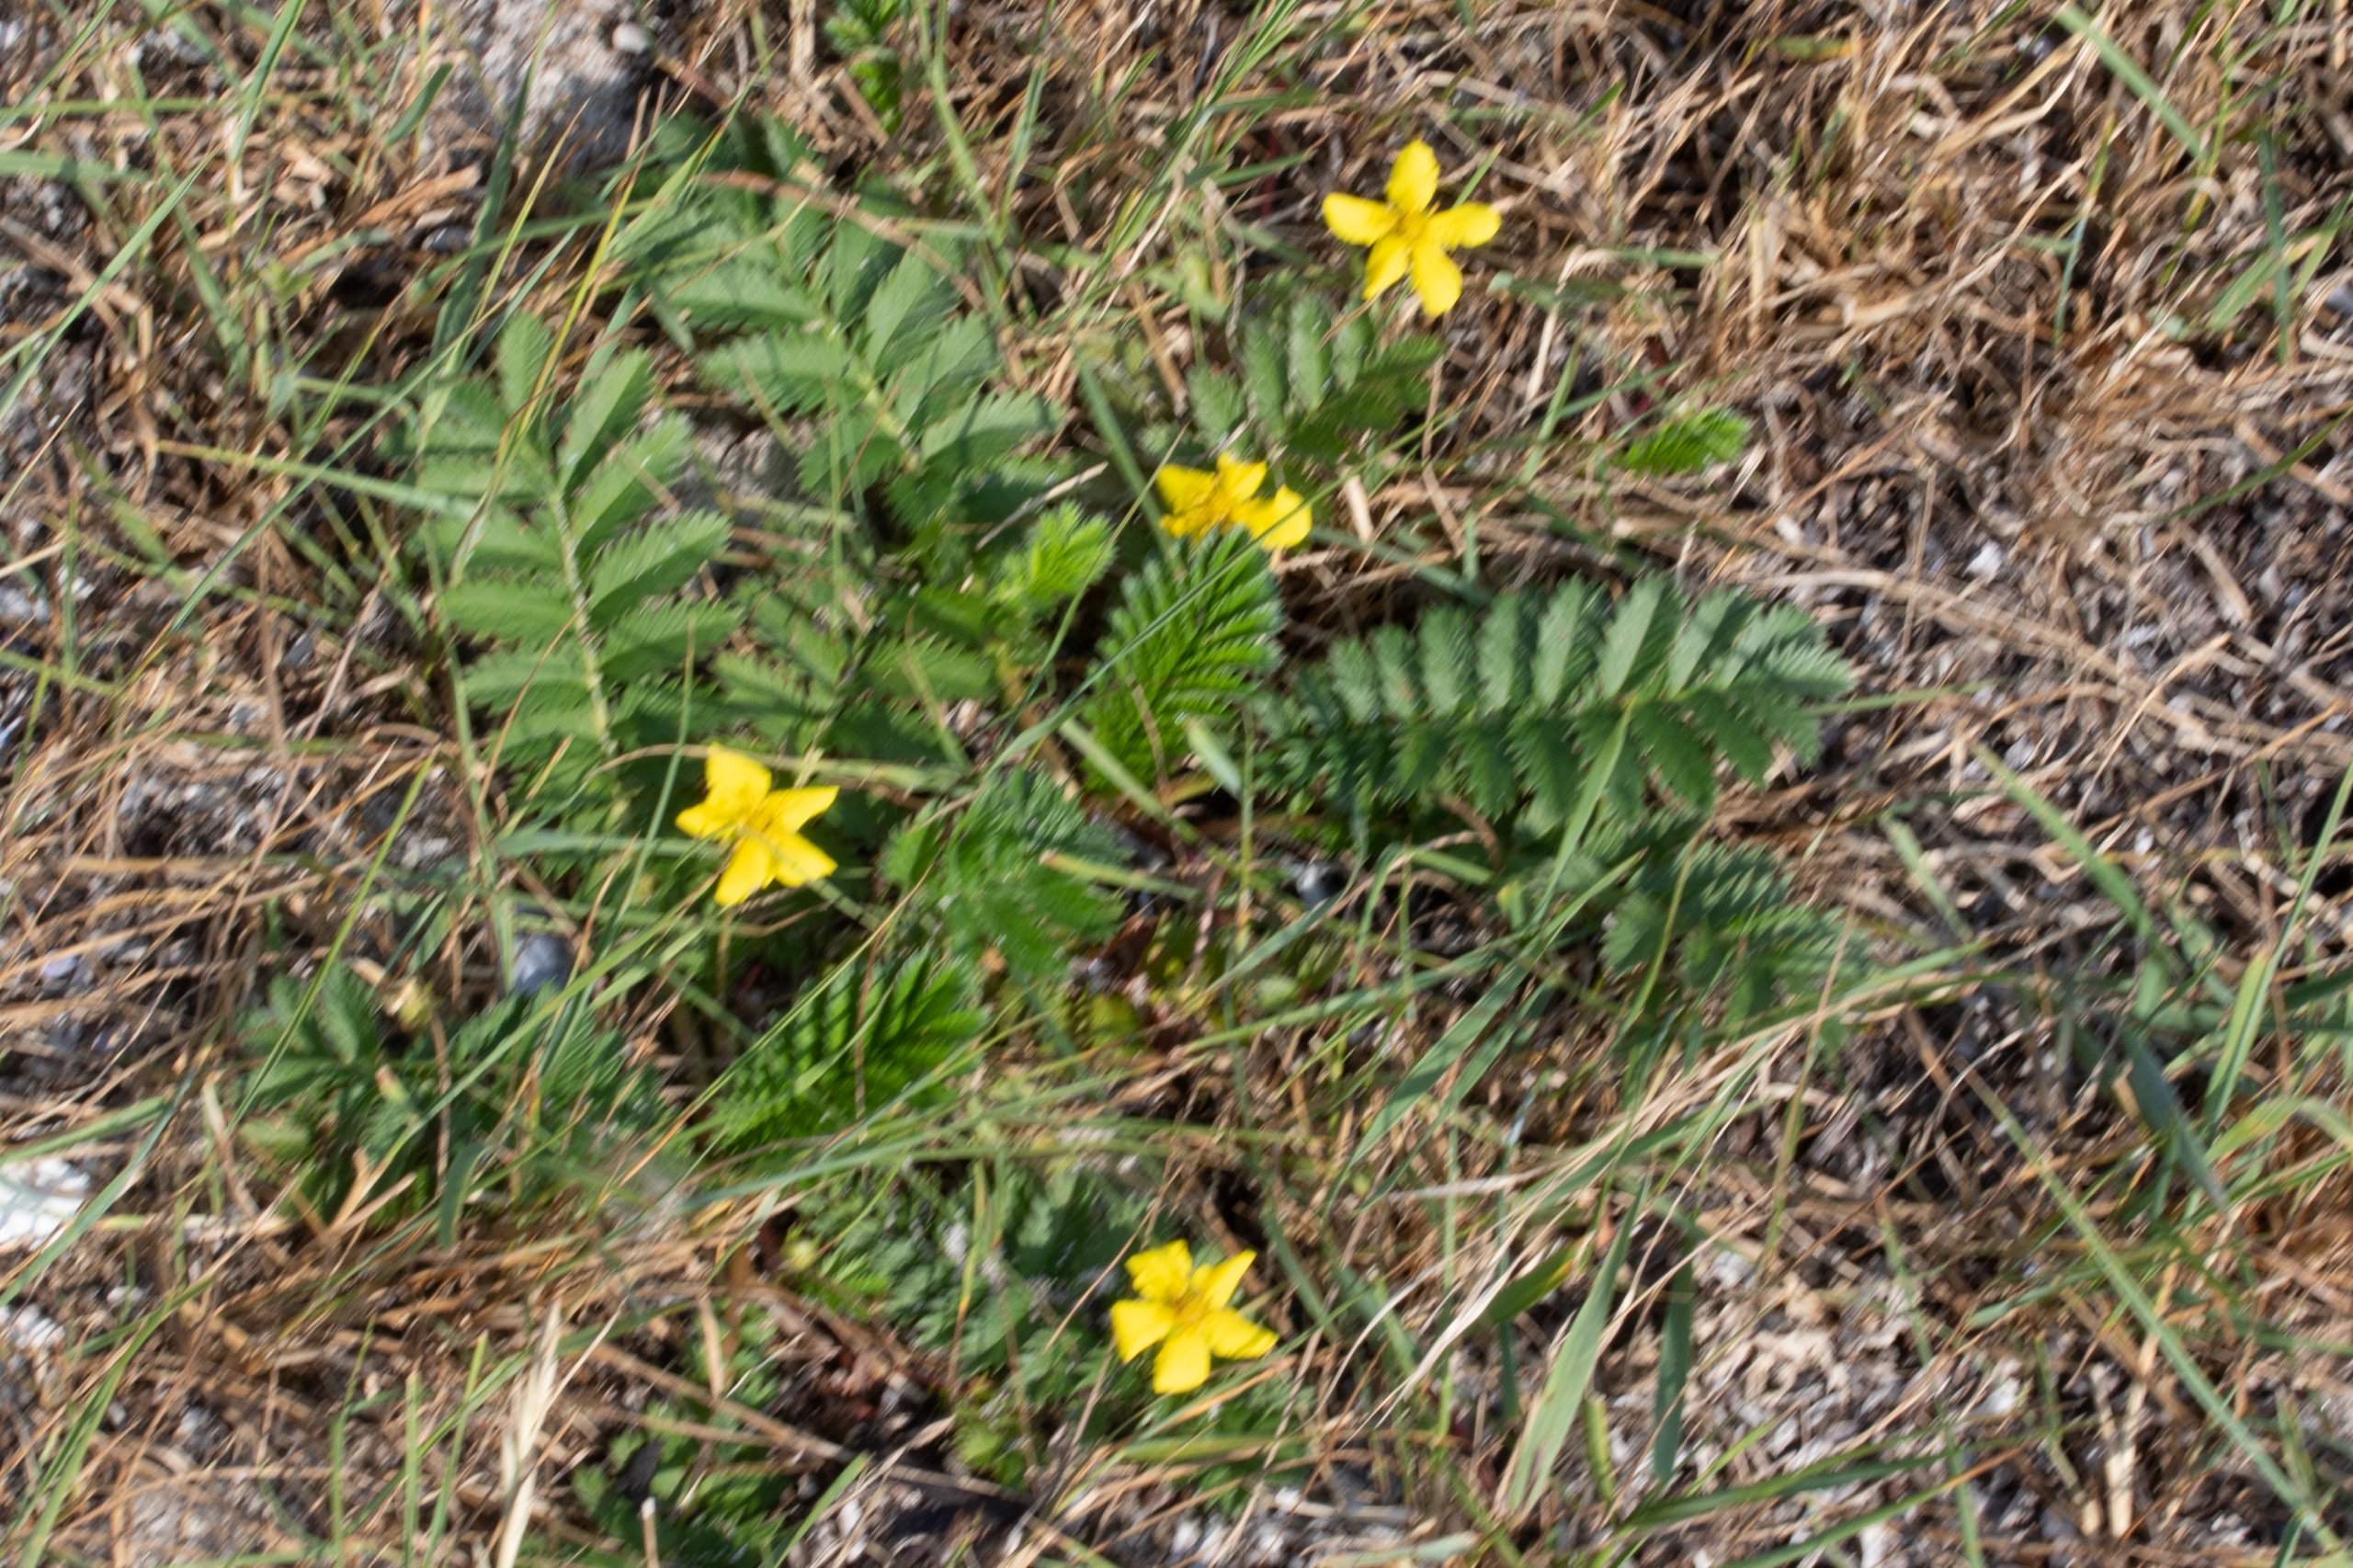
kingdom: Plantae
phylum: Tracheophyta
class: Magnoliopsida
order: Rosales
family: Rosaceae
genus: Argentina
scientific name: Argentina anserina
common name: Gåsepotentil
